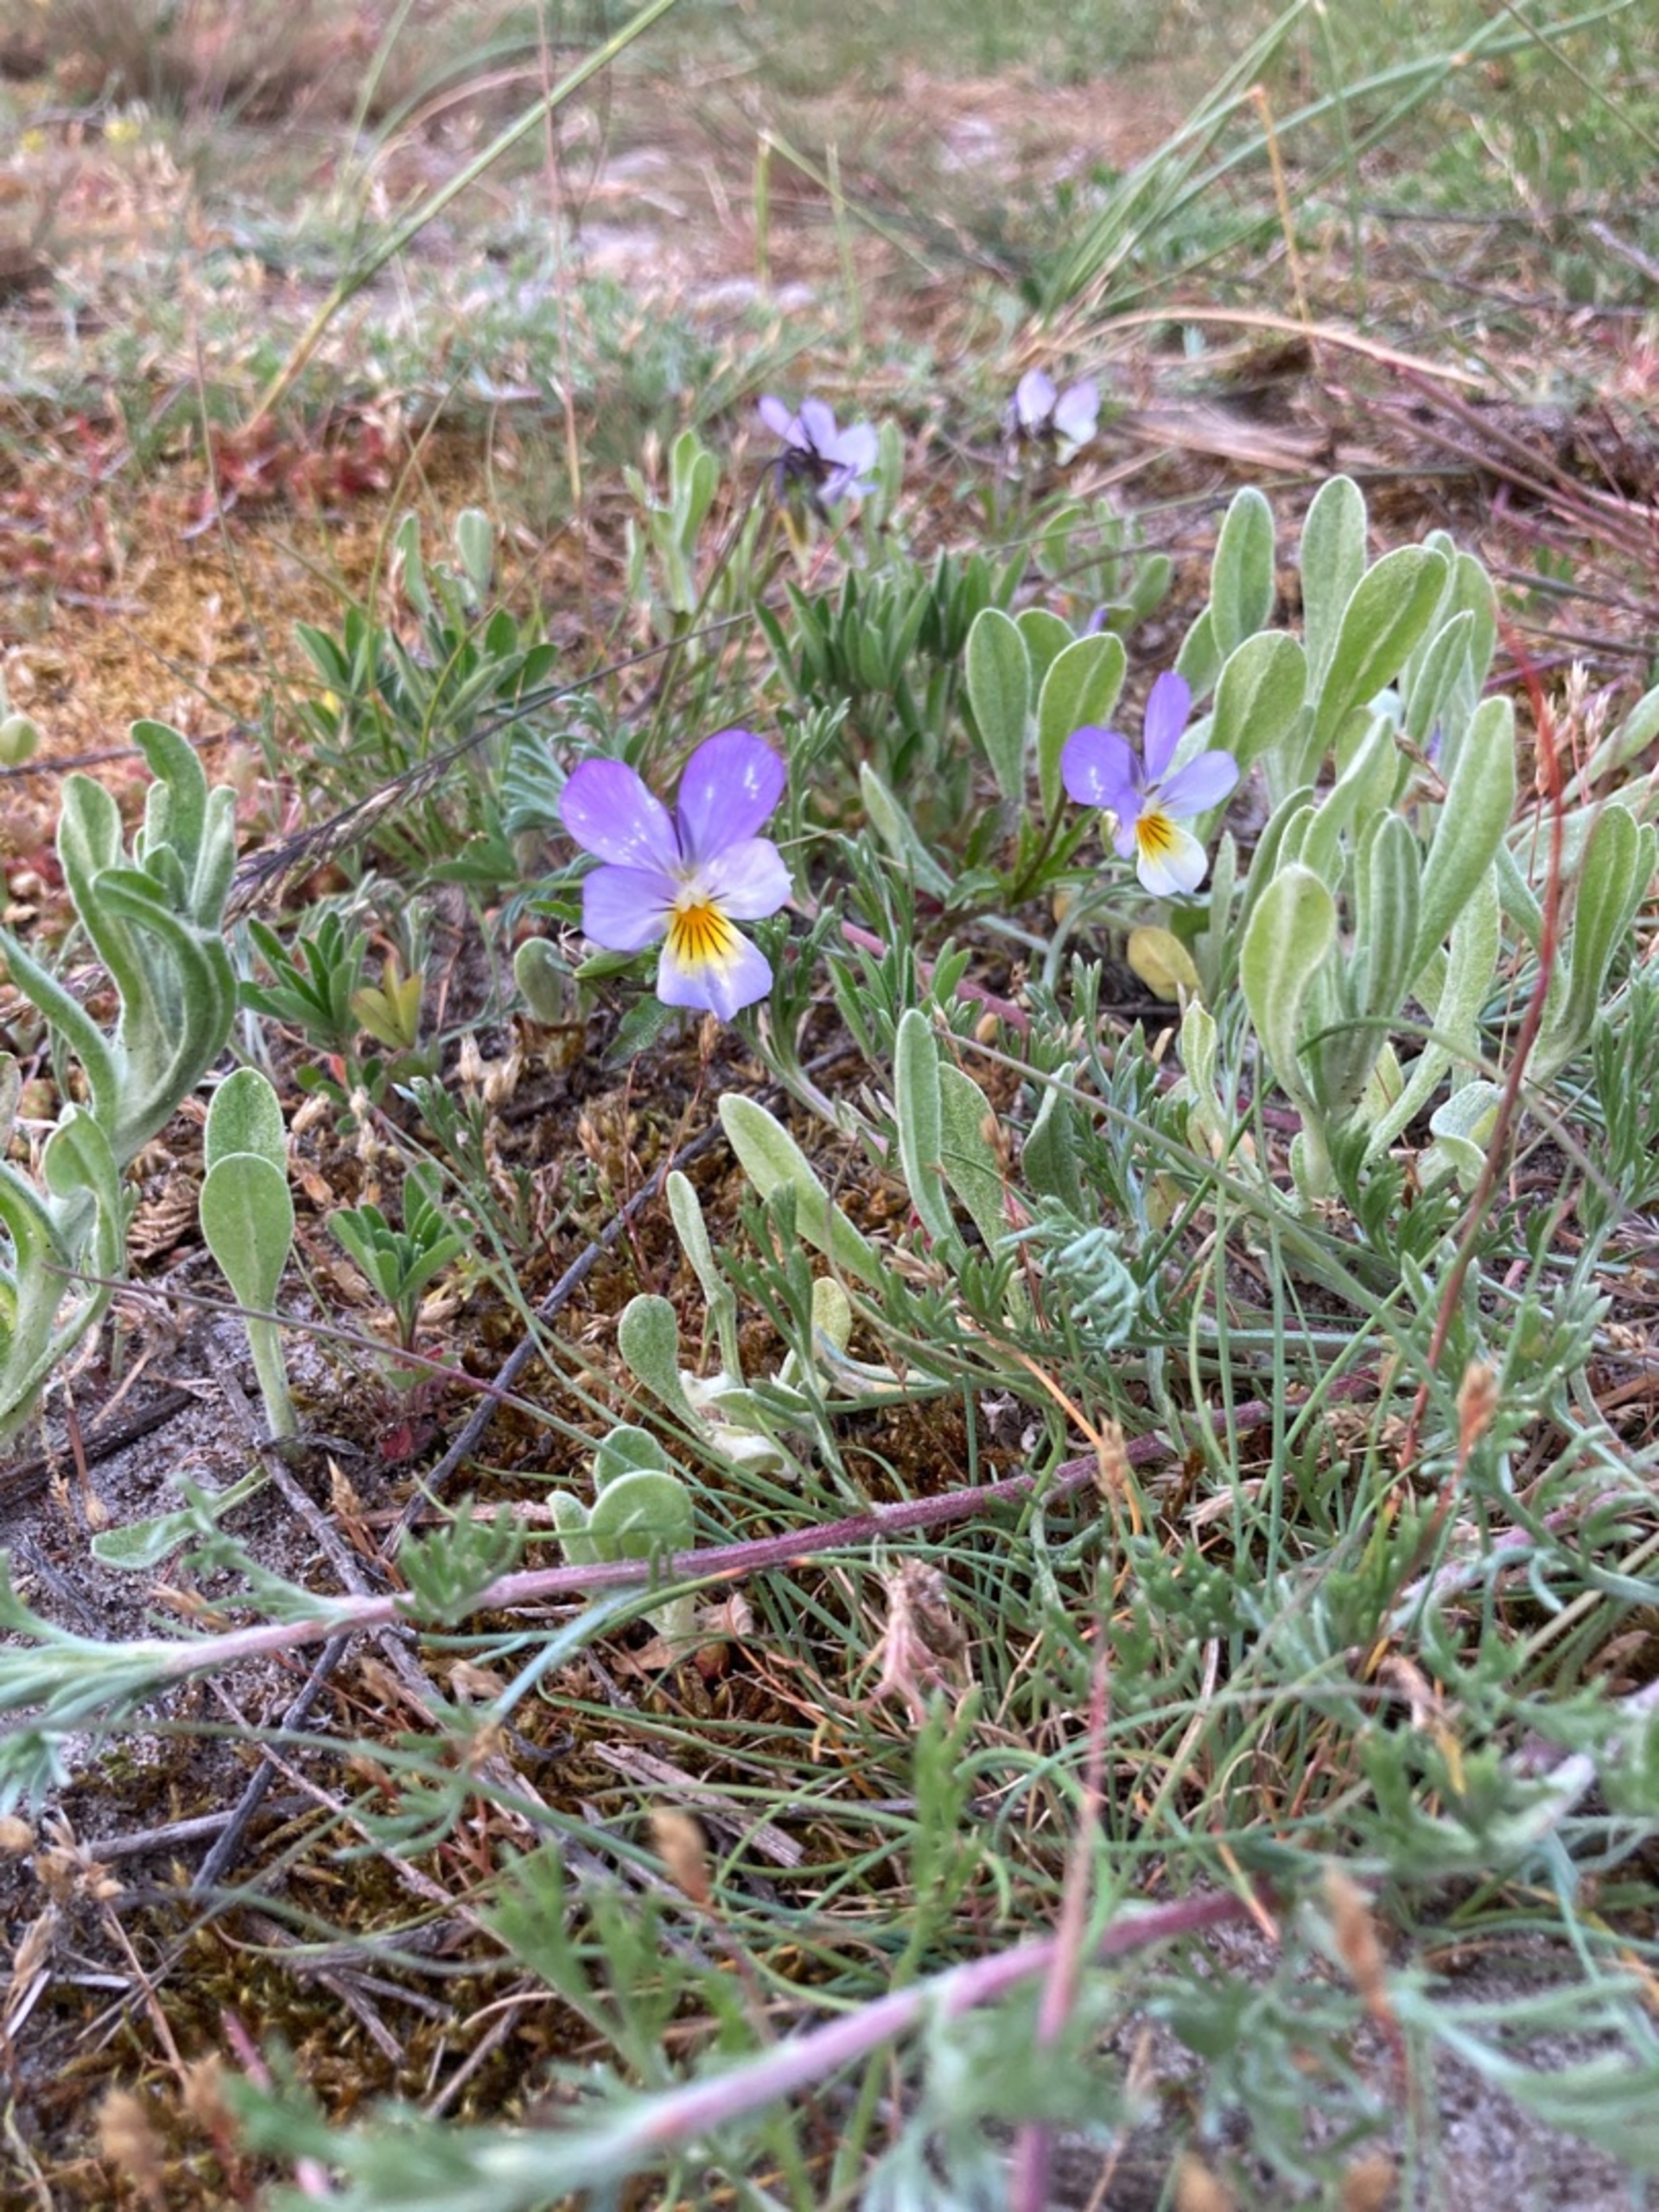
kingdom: Plantae
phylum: Tracheophyta
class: Magnoliopsida
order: Malpighiales
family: Violaceae
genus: Viola
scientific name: Viola tricolor
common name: Almindelig stedmoderblomst
